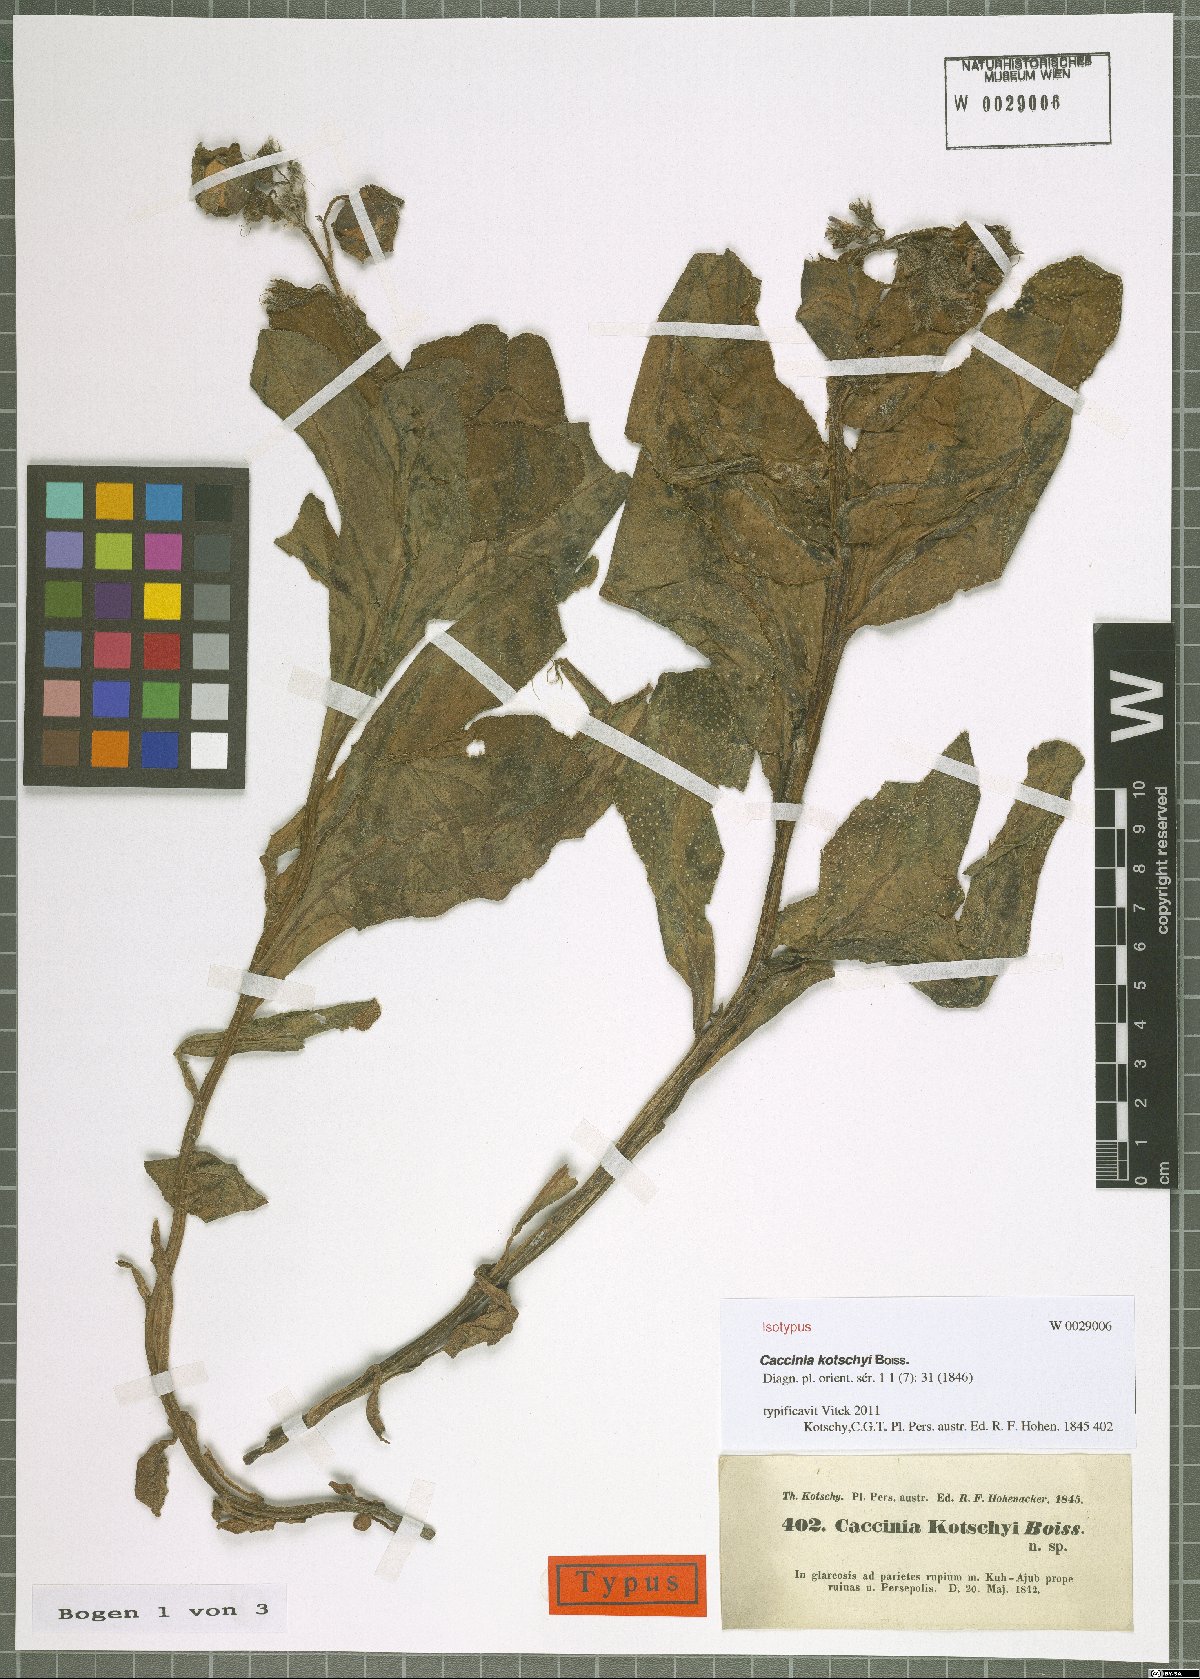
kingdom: Plantae
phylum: Tracheophyta
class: Magnoliopsida
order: Boraginales
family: Boraginaceae
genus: Caccinia
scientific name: Caccinia kotschyi
